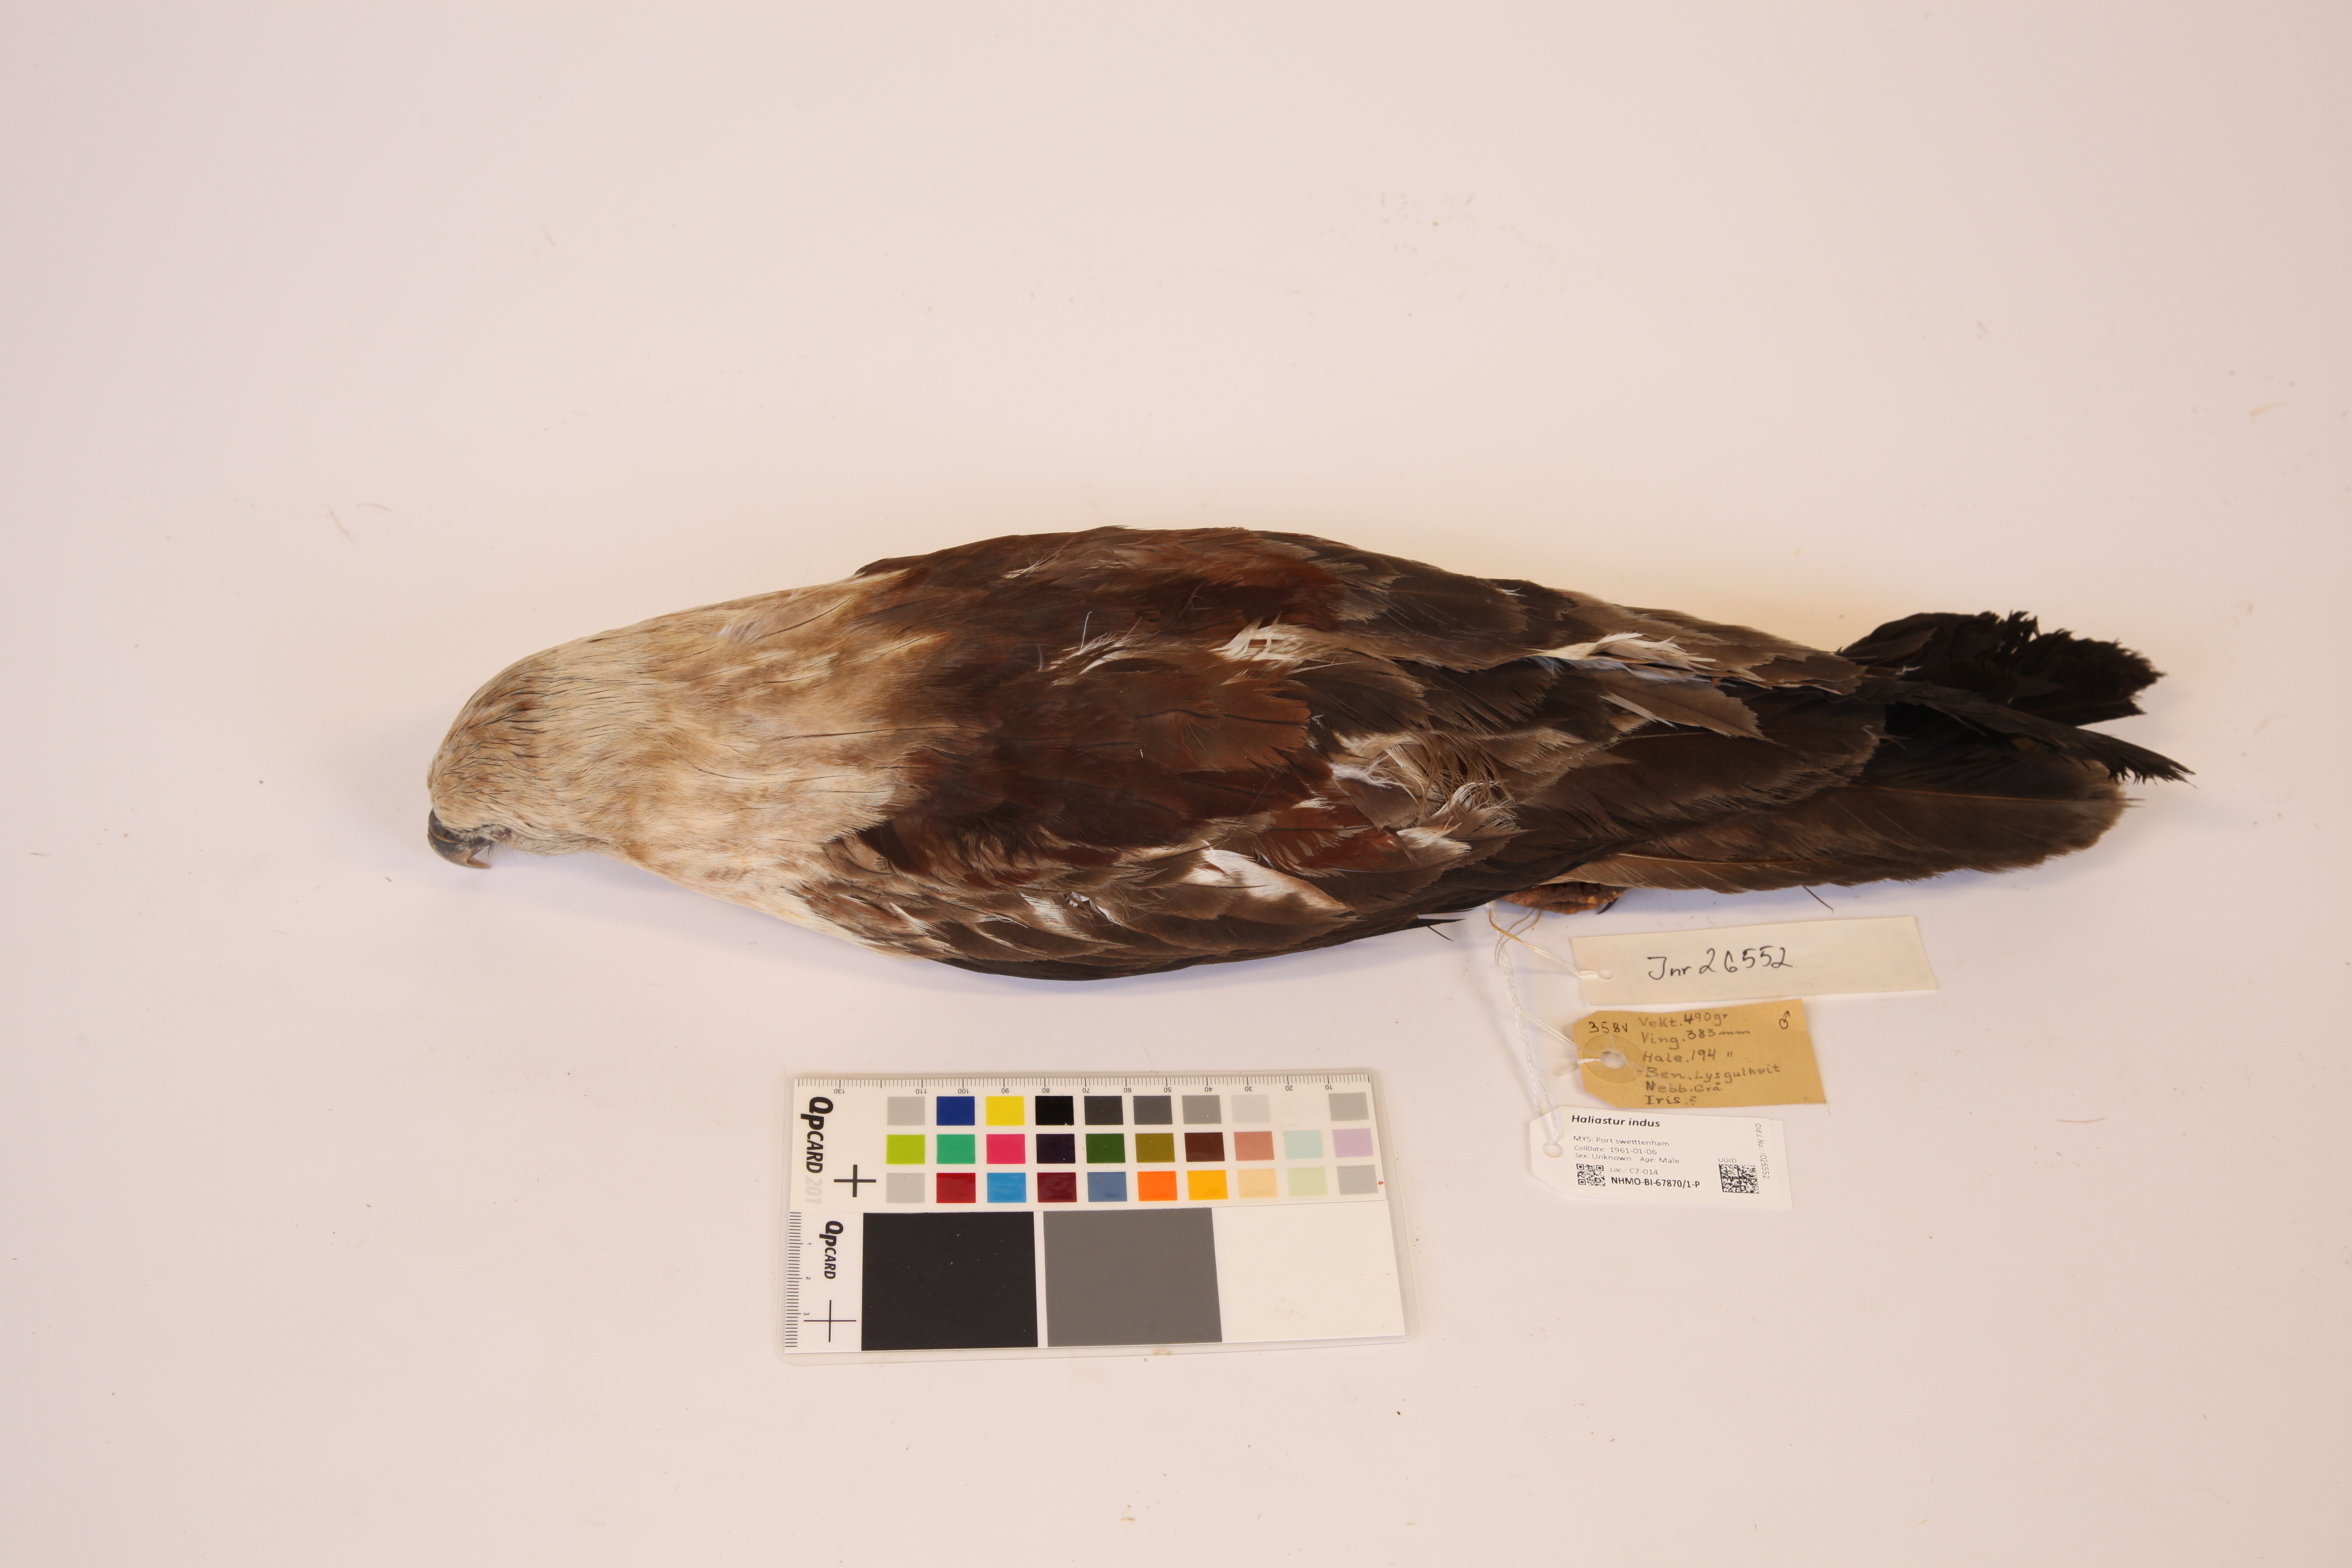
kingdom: Animalia
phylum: Chordata
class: Aves
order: Accipitriformes
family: Accipitridae
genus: Haliastur
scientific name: Haliastur indus
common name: Brahminy kite
